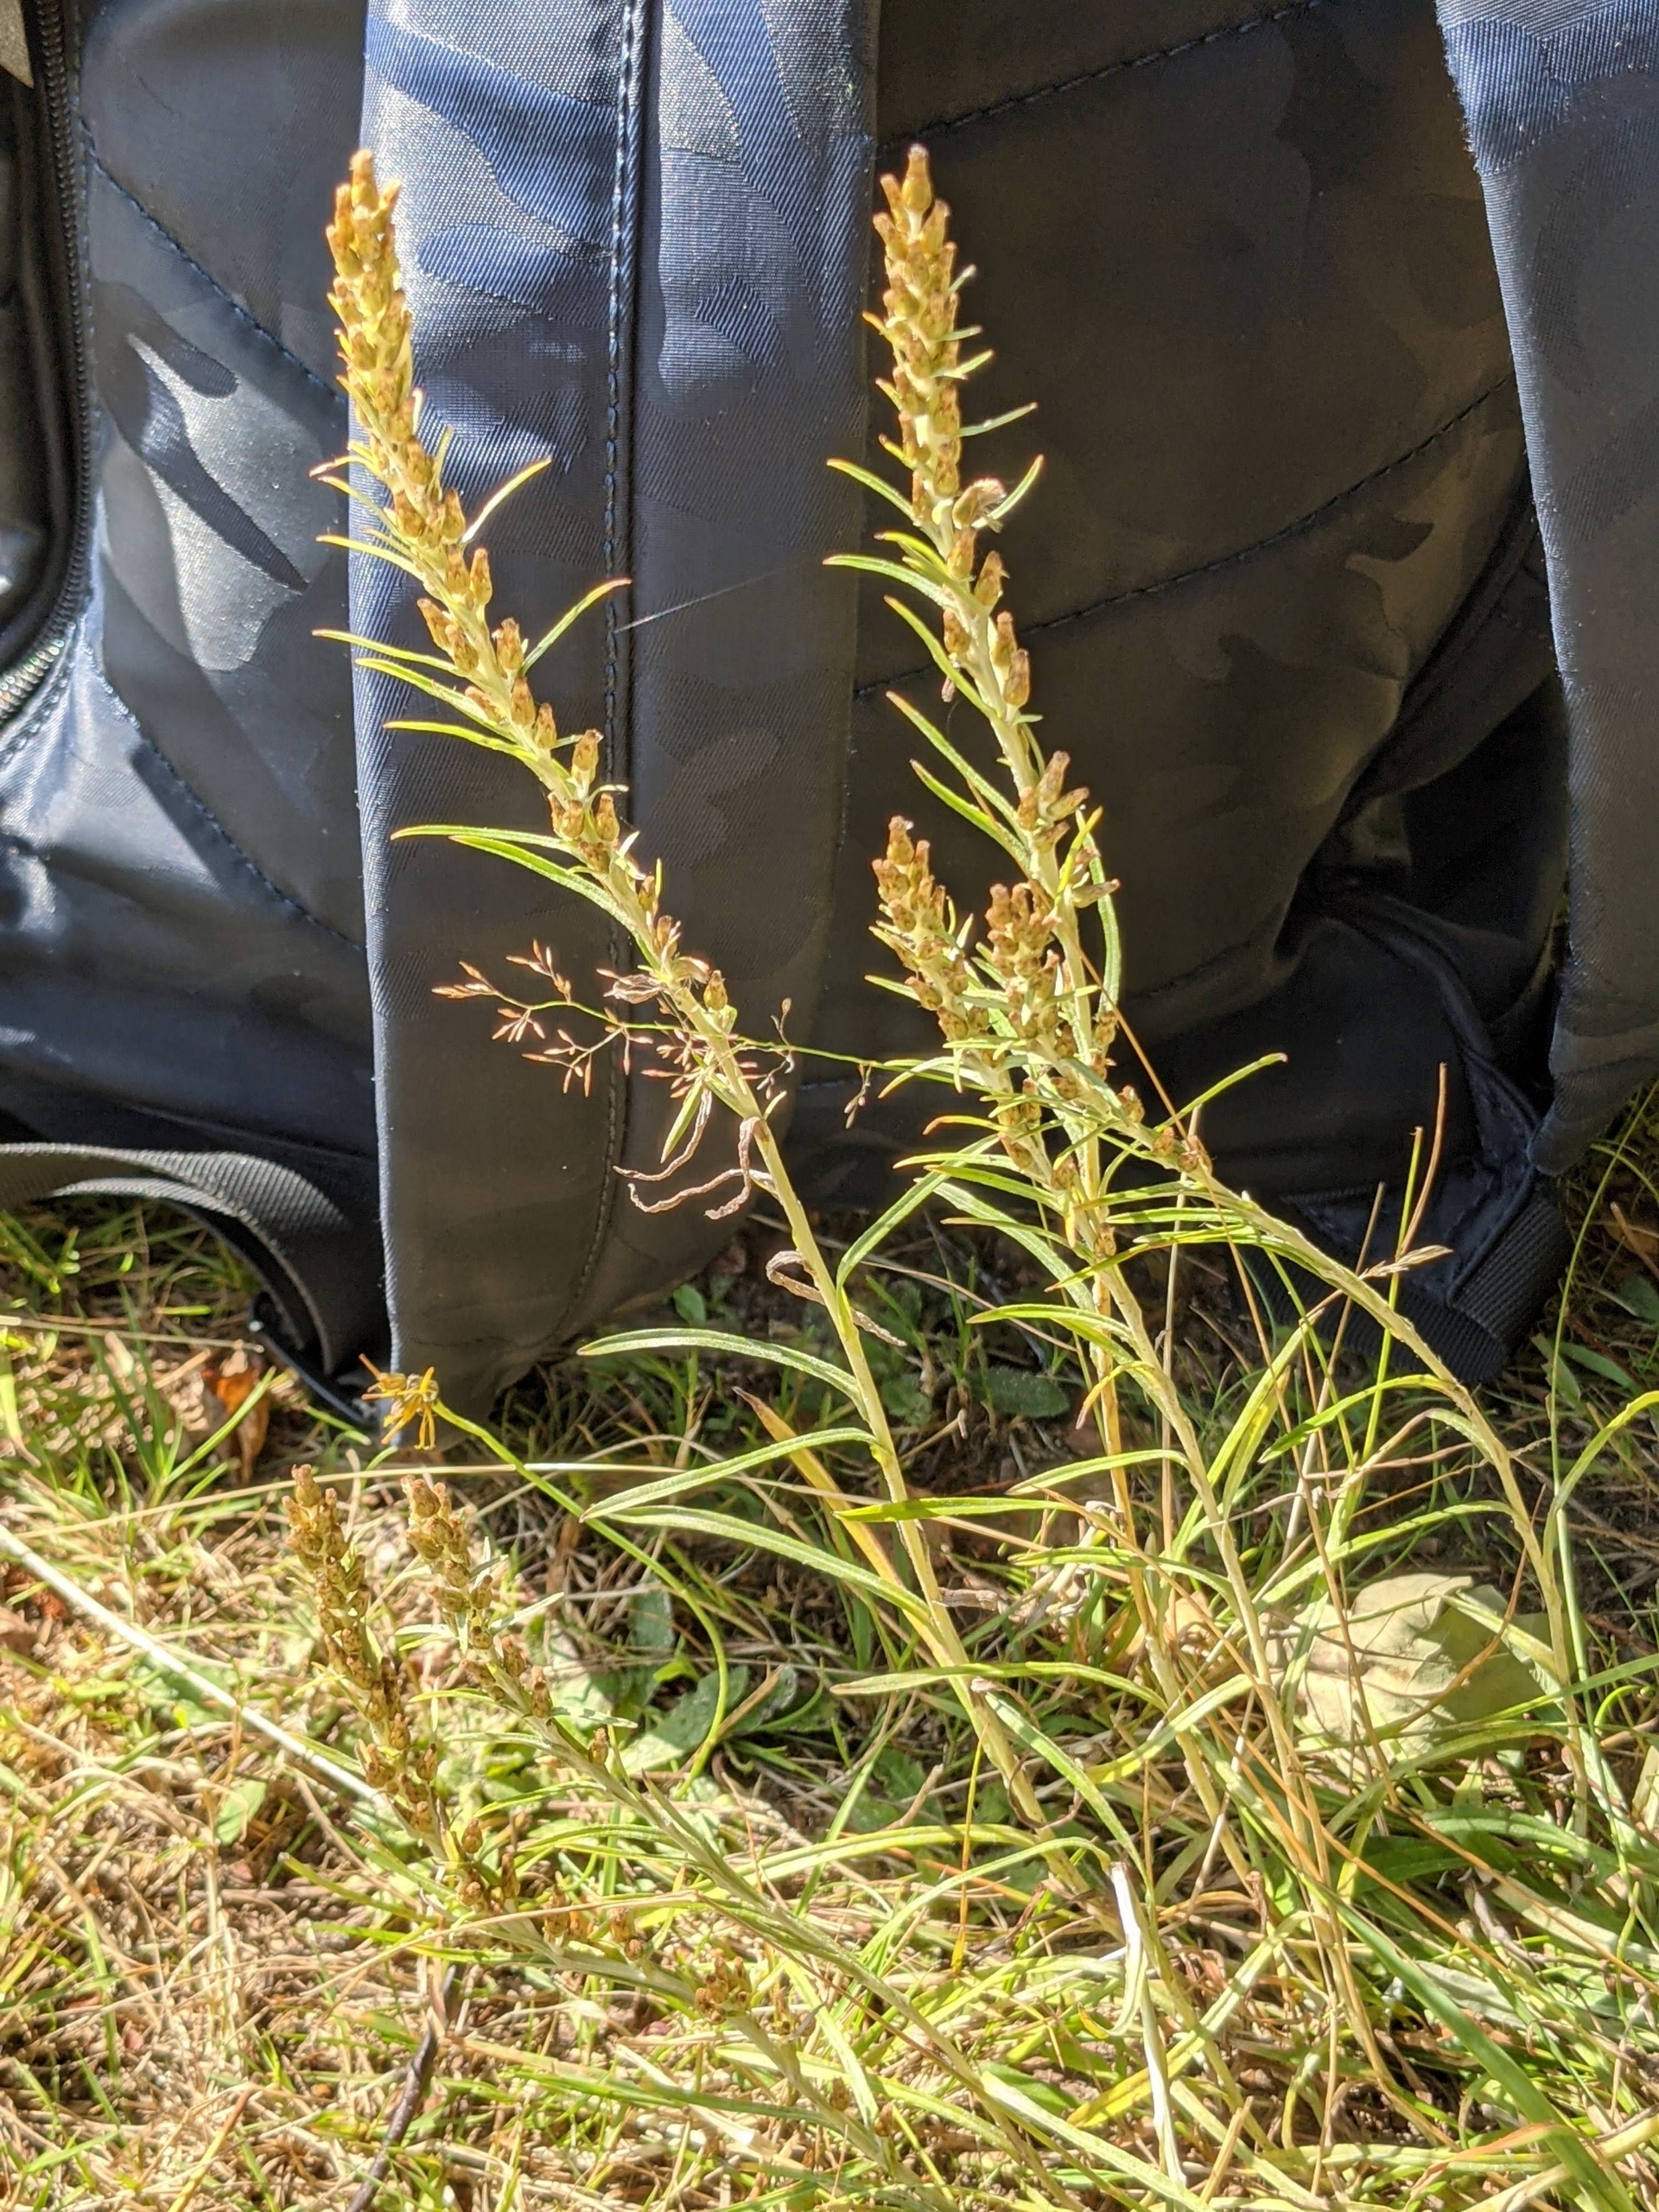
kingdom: Plantae
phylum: Tracheophyta
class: Magnoliopsida
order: Asterales
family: Asteraceae
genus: Omalotheca
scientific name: Omalotheca sylvatica
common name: Rank evighedsblomst
